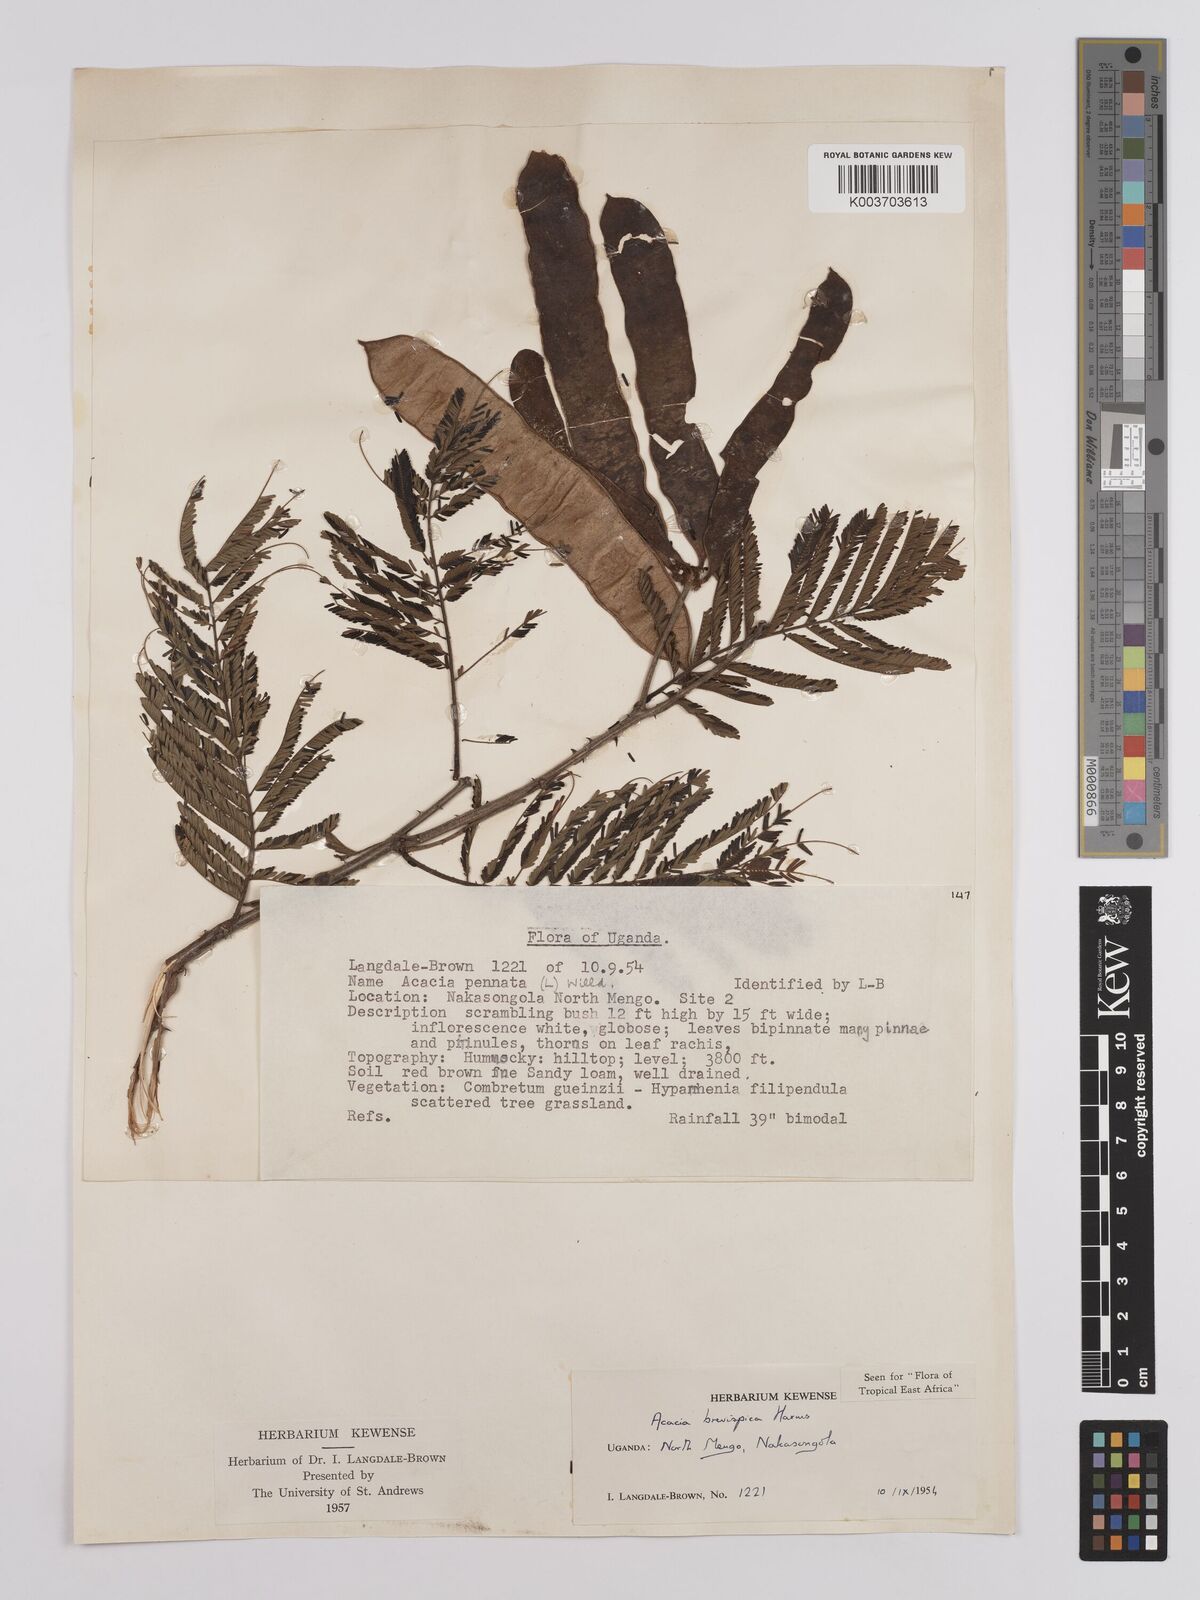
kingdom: Plantae
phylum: Tracheophyta
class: Magnoliopsida
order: Fabales
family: Fabaceae
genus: Senegalia
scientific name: Senegalia brevispica
